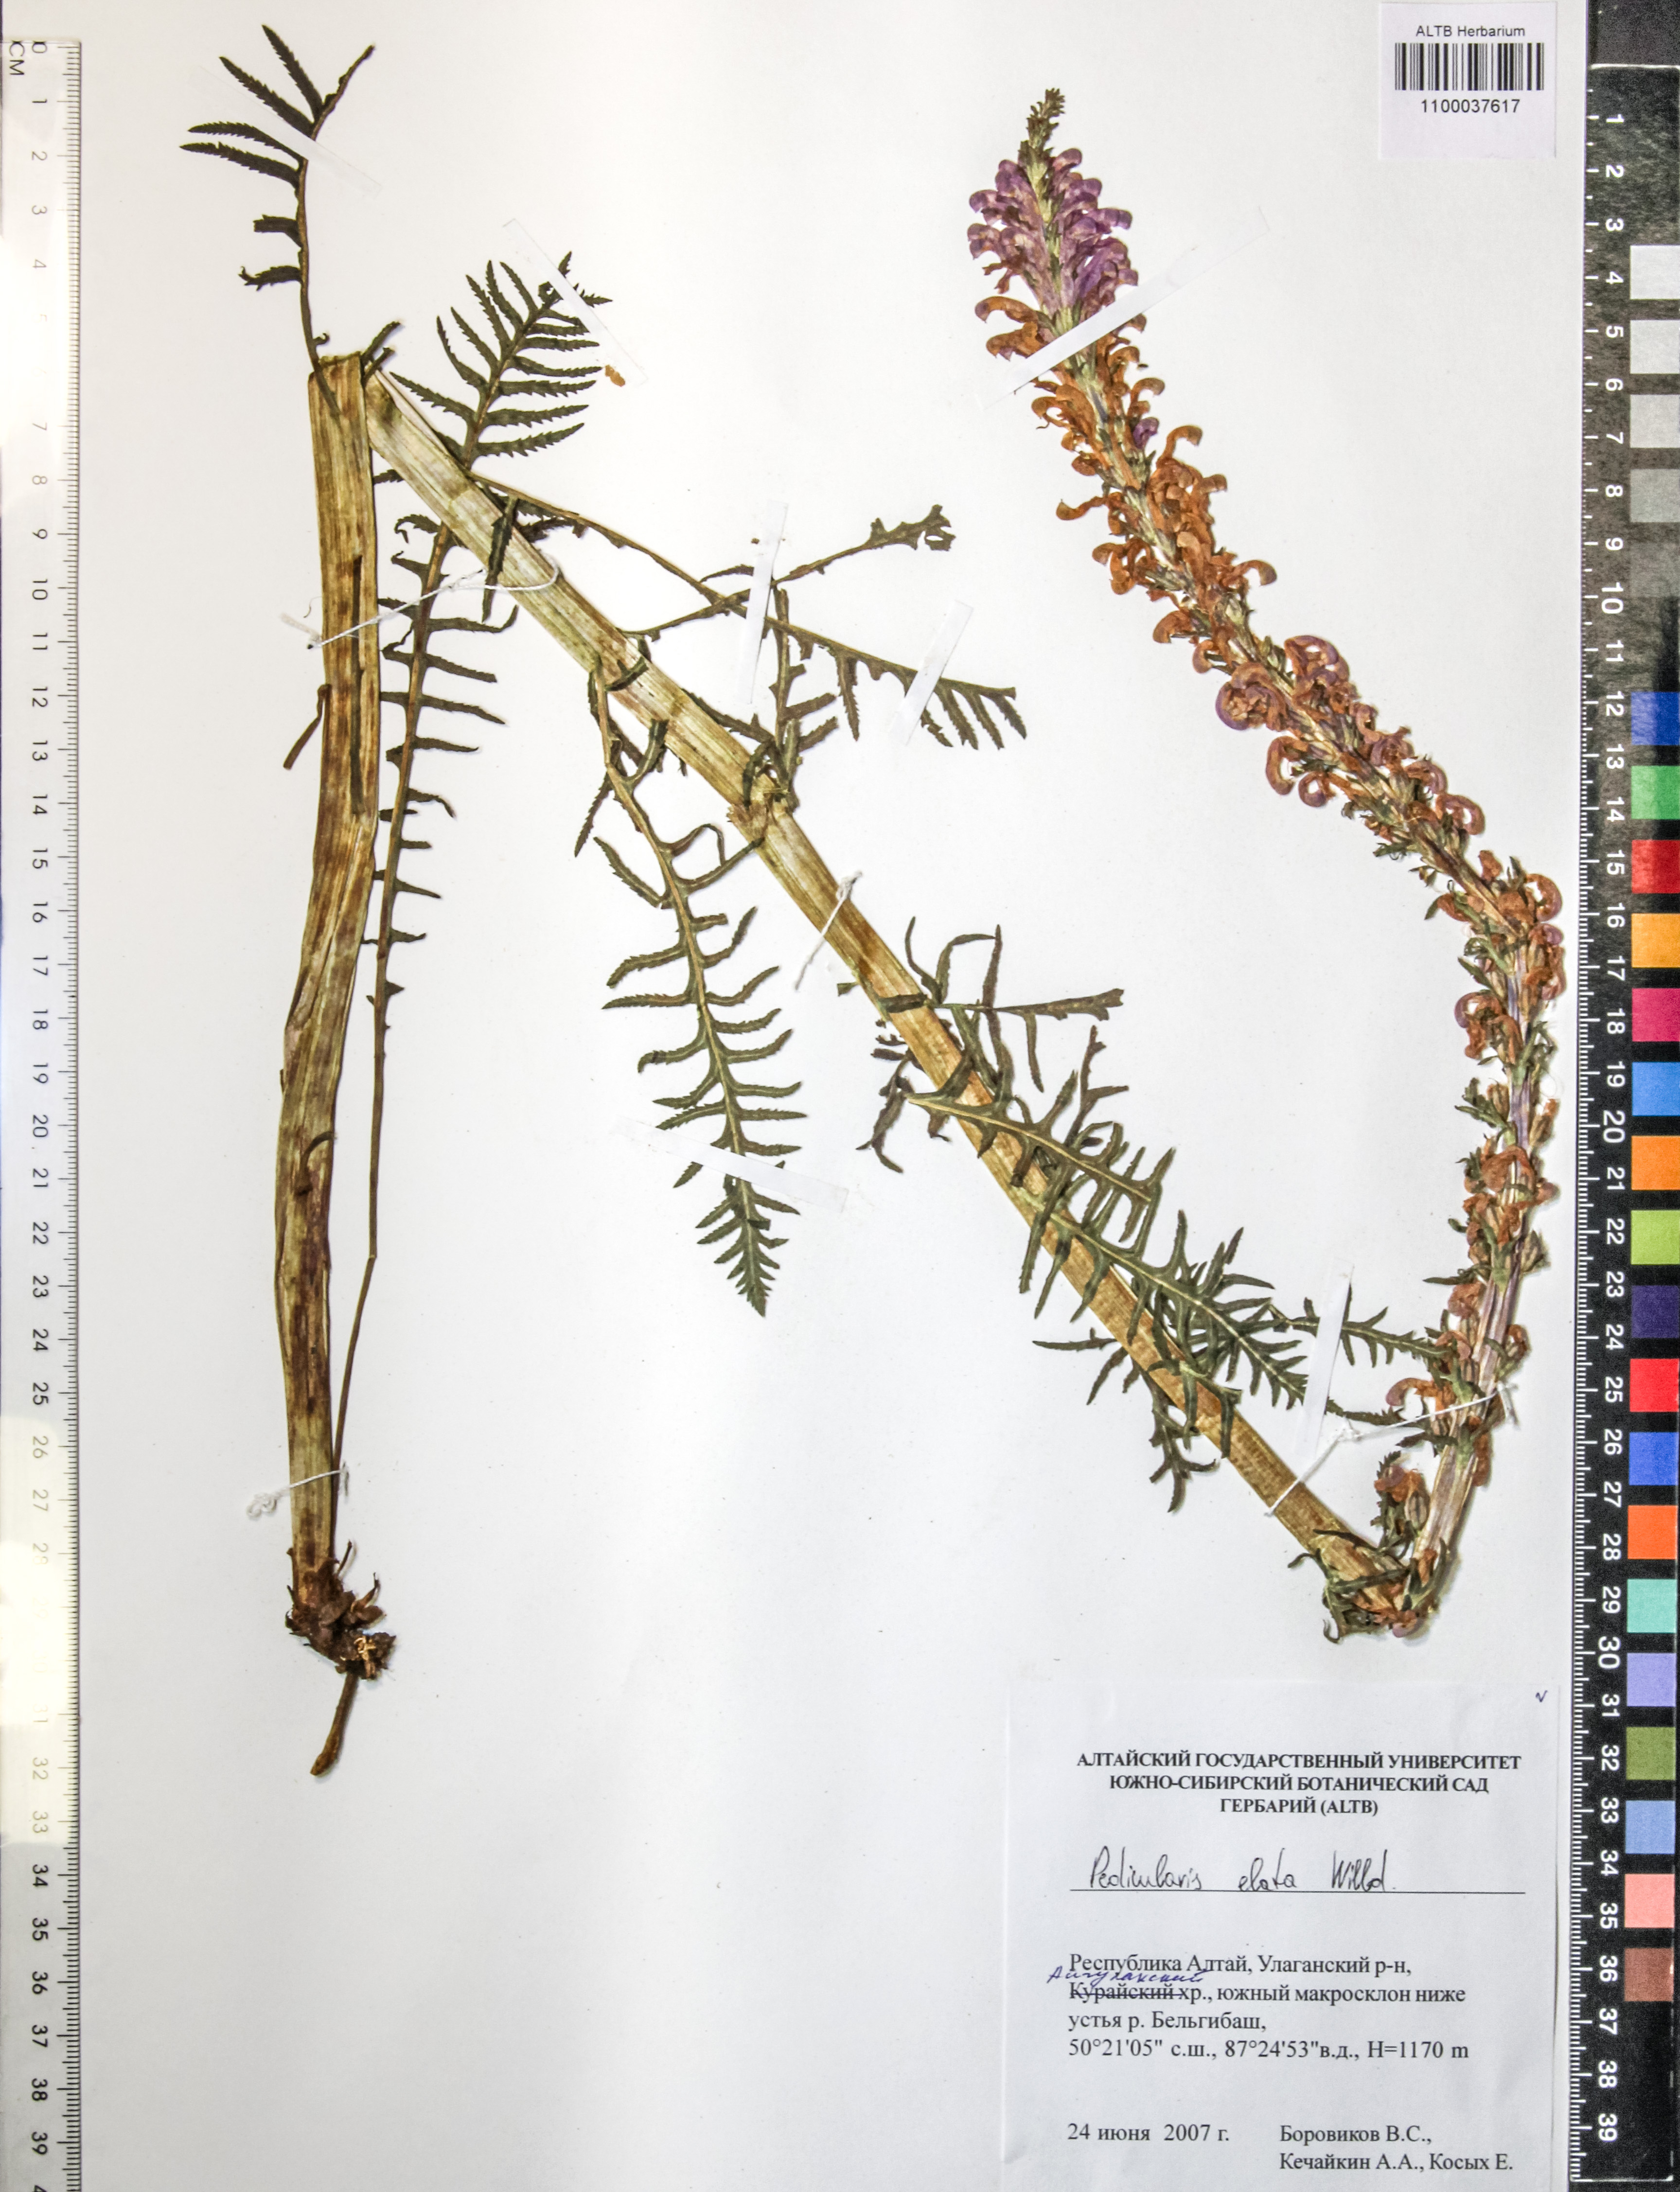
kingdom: Plantae
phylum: Tracheophyta
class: Magnoliopsida
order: Lamiales
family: Orobanchaceae
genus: Pedicularis
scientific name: Pedicularis elata
